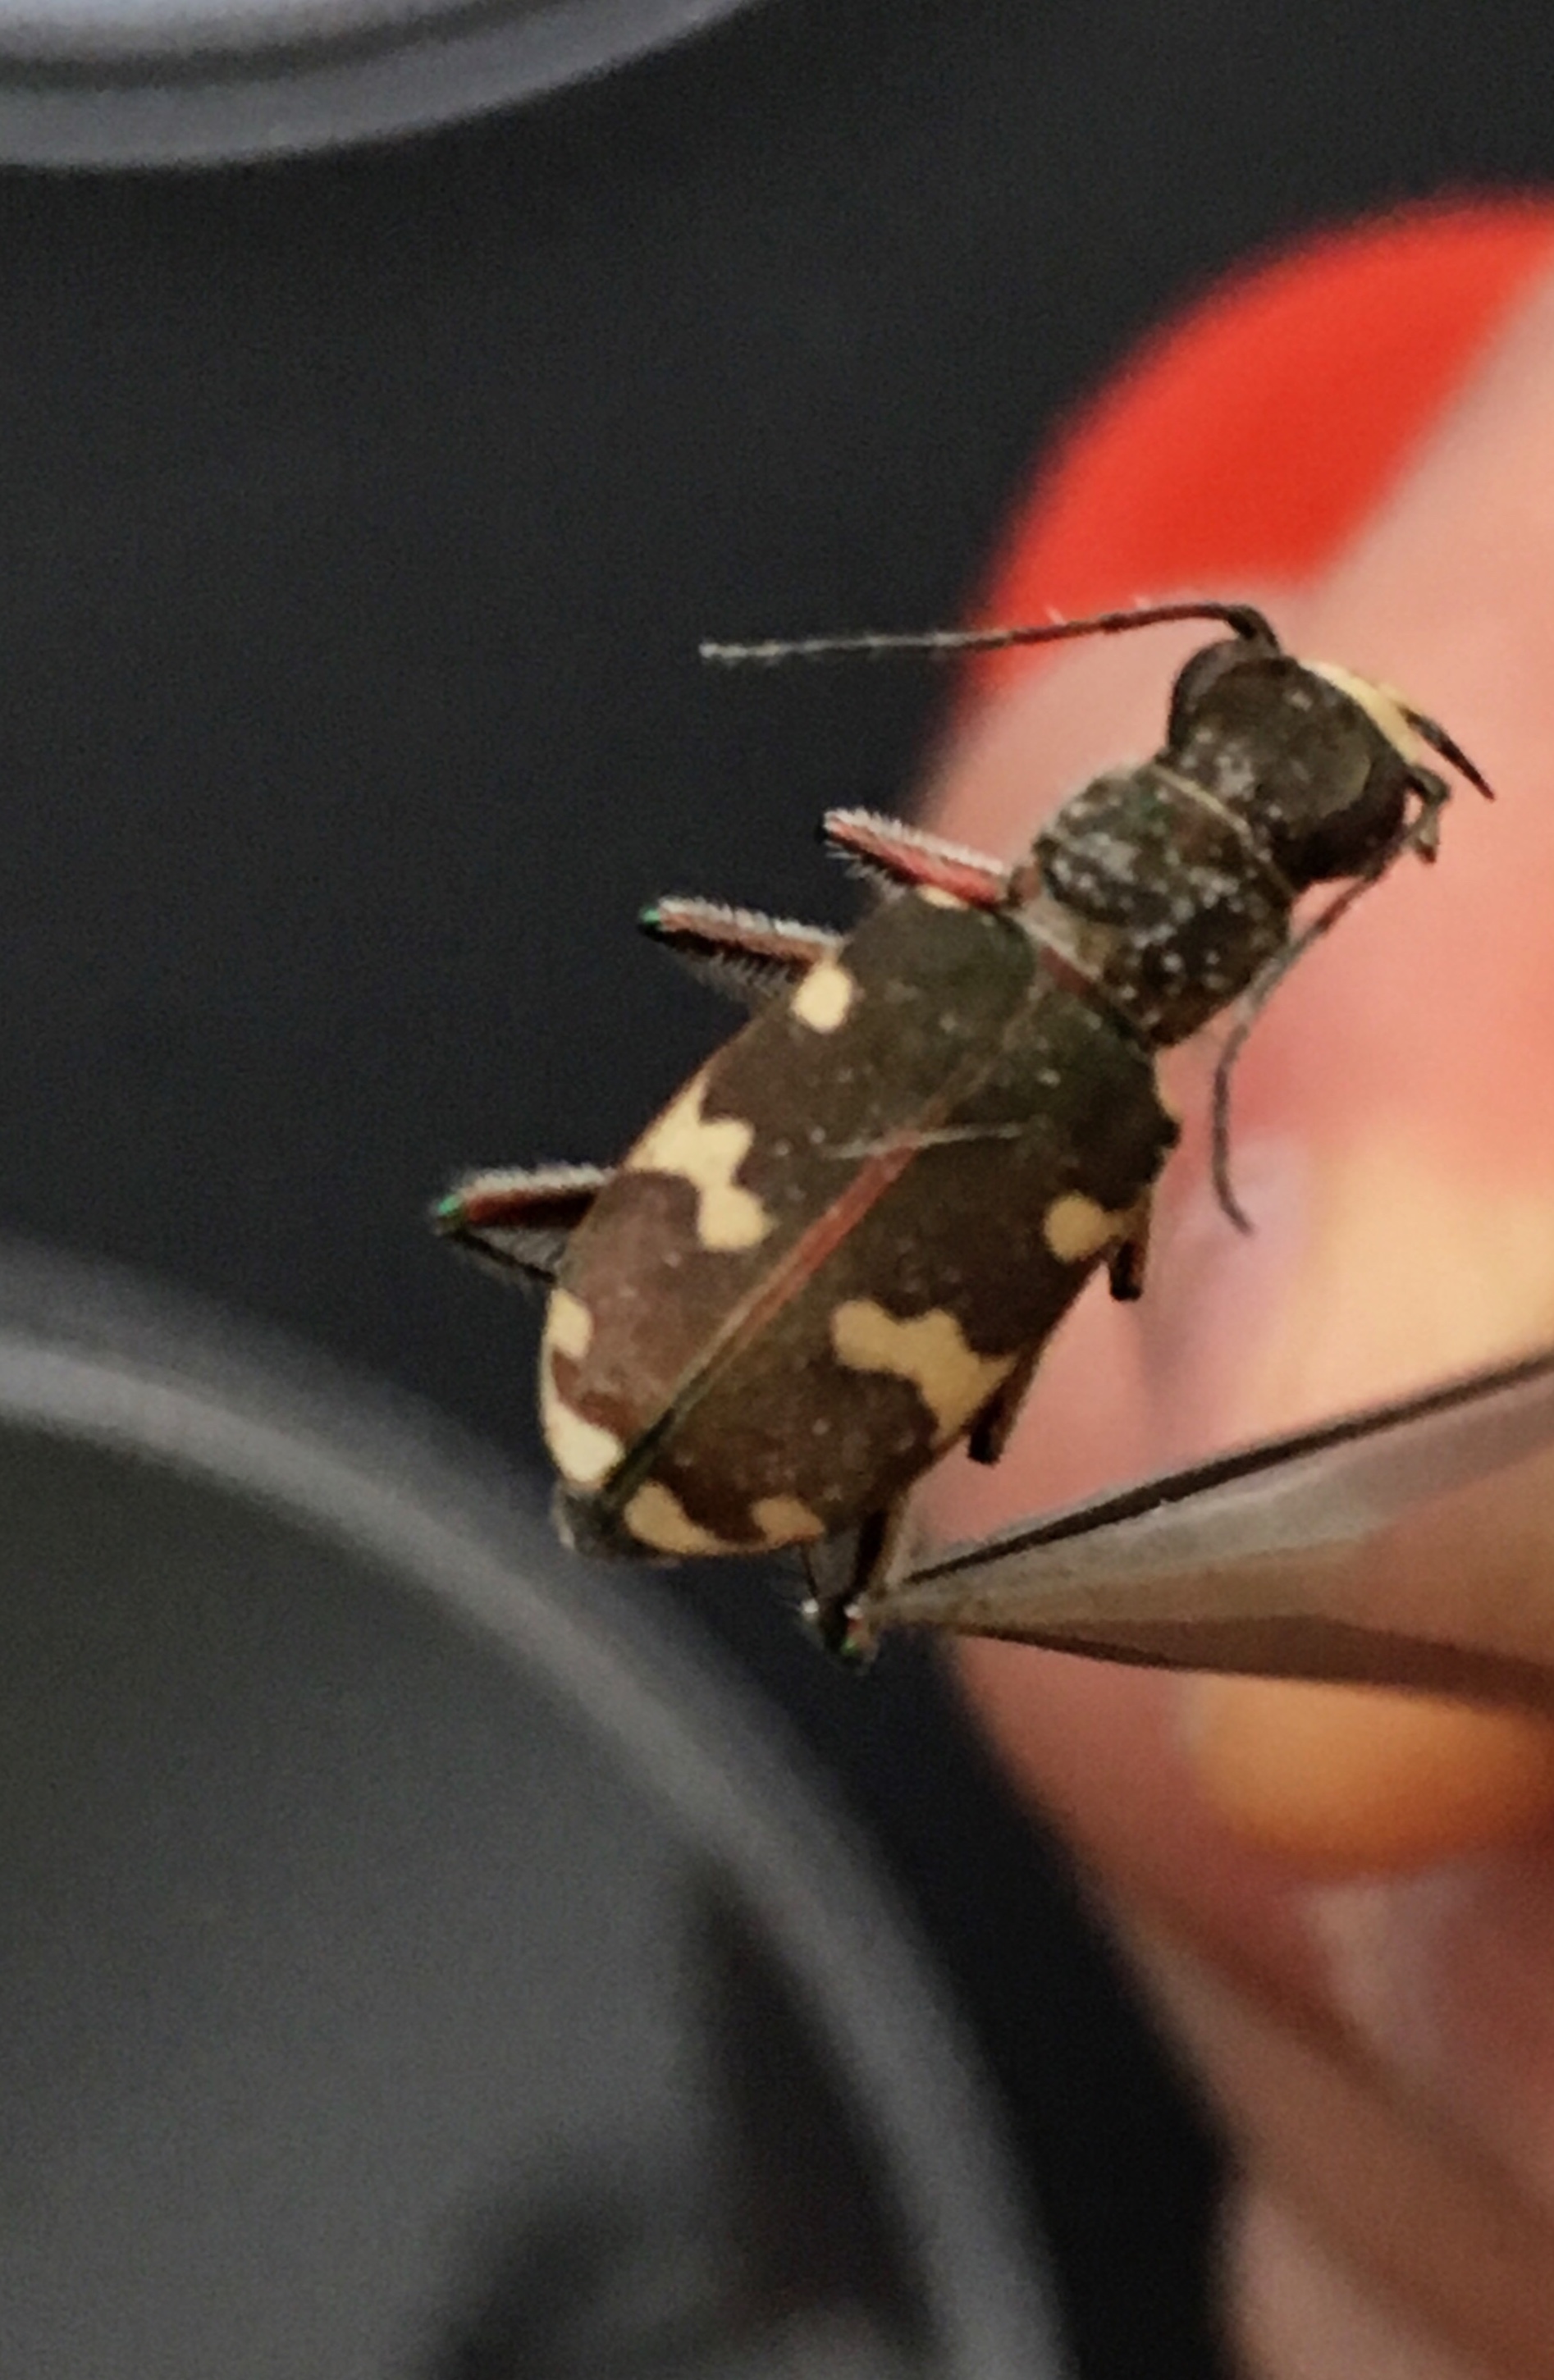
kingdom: Animalia
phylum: Arthropoda
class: Insecta
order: Coleoptera
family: Carabidae
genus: Cicindela
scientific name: Cicindela hybrida
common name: Northern dune tiger beetle
